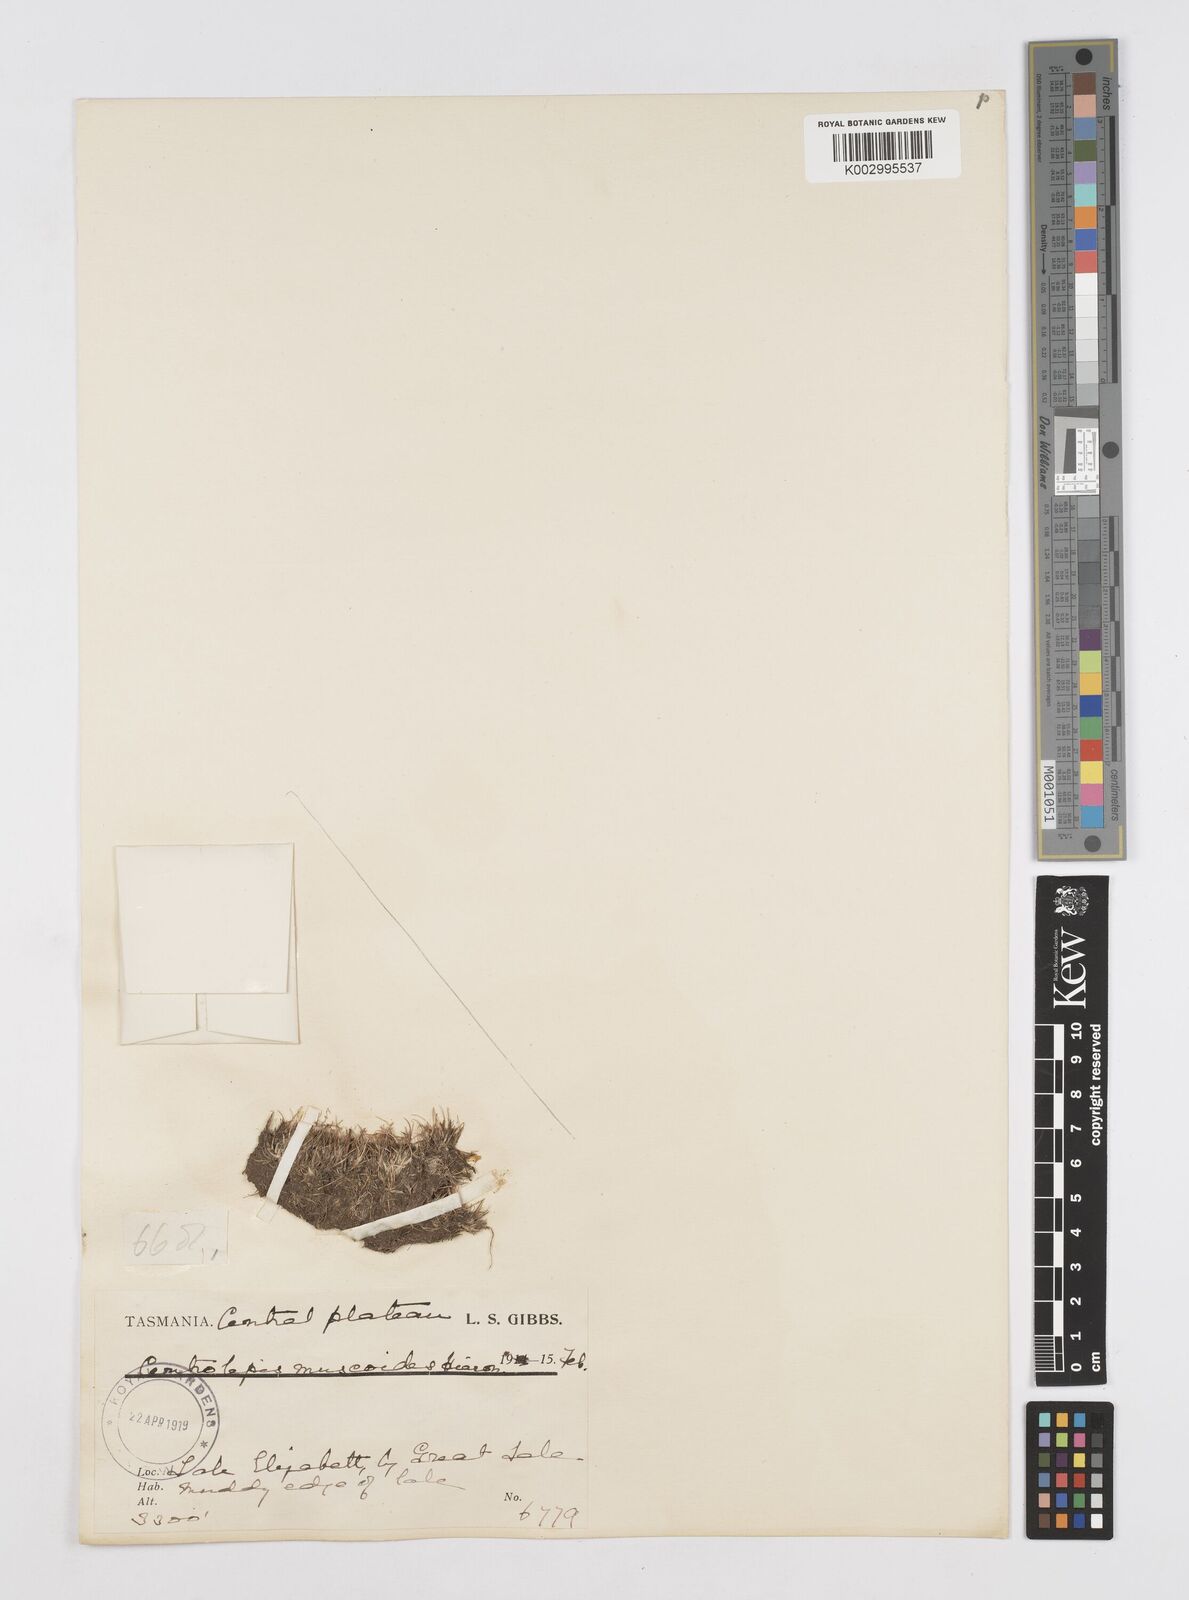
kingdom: Plantae
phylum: Tracheophyta
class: Liliopsida
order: Poales
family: Restionaceae
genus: Centrolepis
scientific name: Centrolepis muscoides
